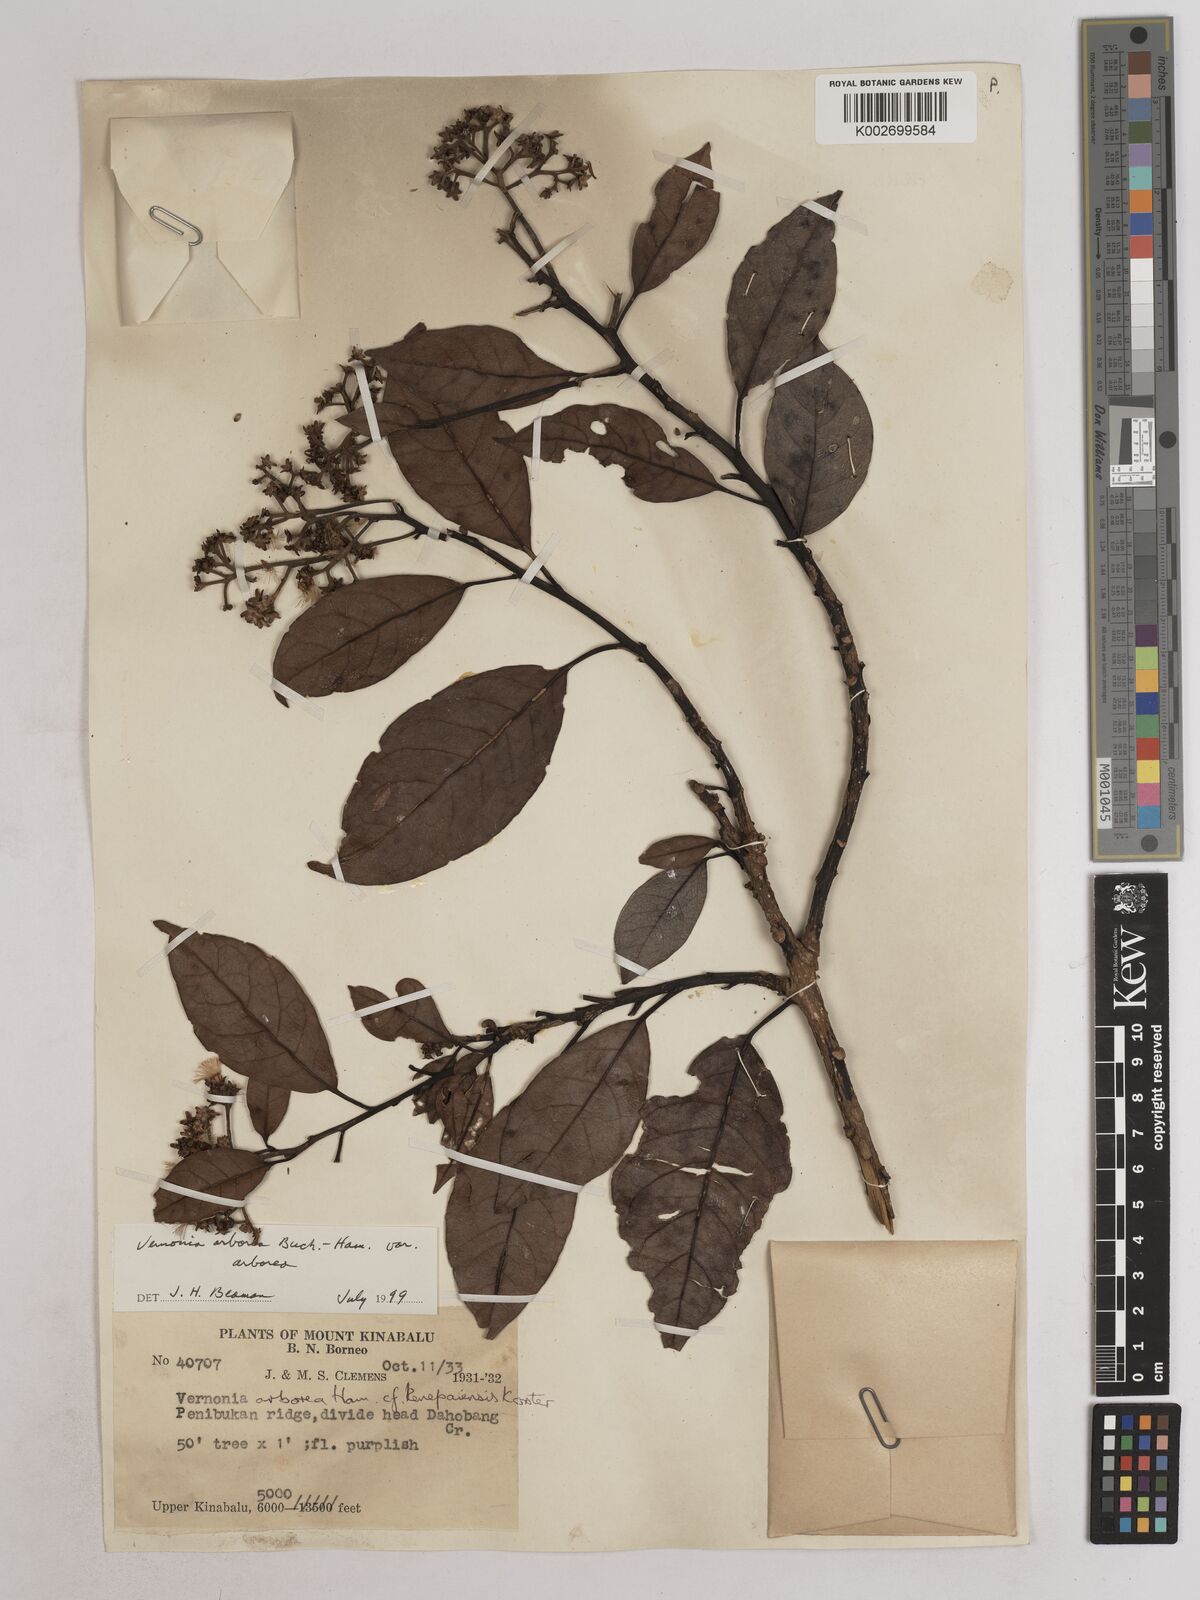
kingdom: Plantae
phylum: Tracheophyta
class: Magnoliopsida
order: Asterales
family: Asteraceae
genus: Strobocalyx
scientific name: Strobocalyx arborea
